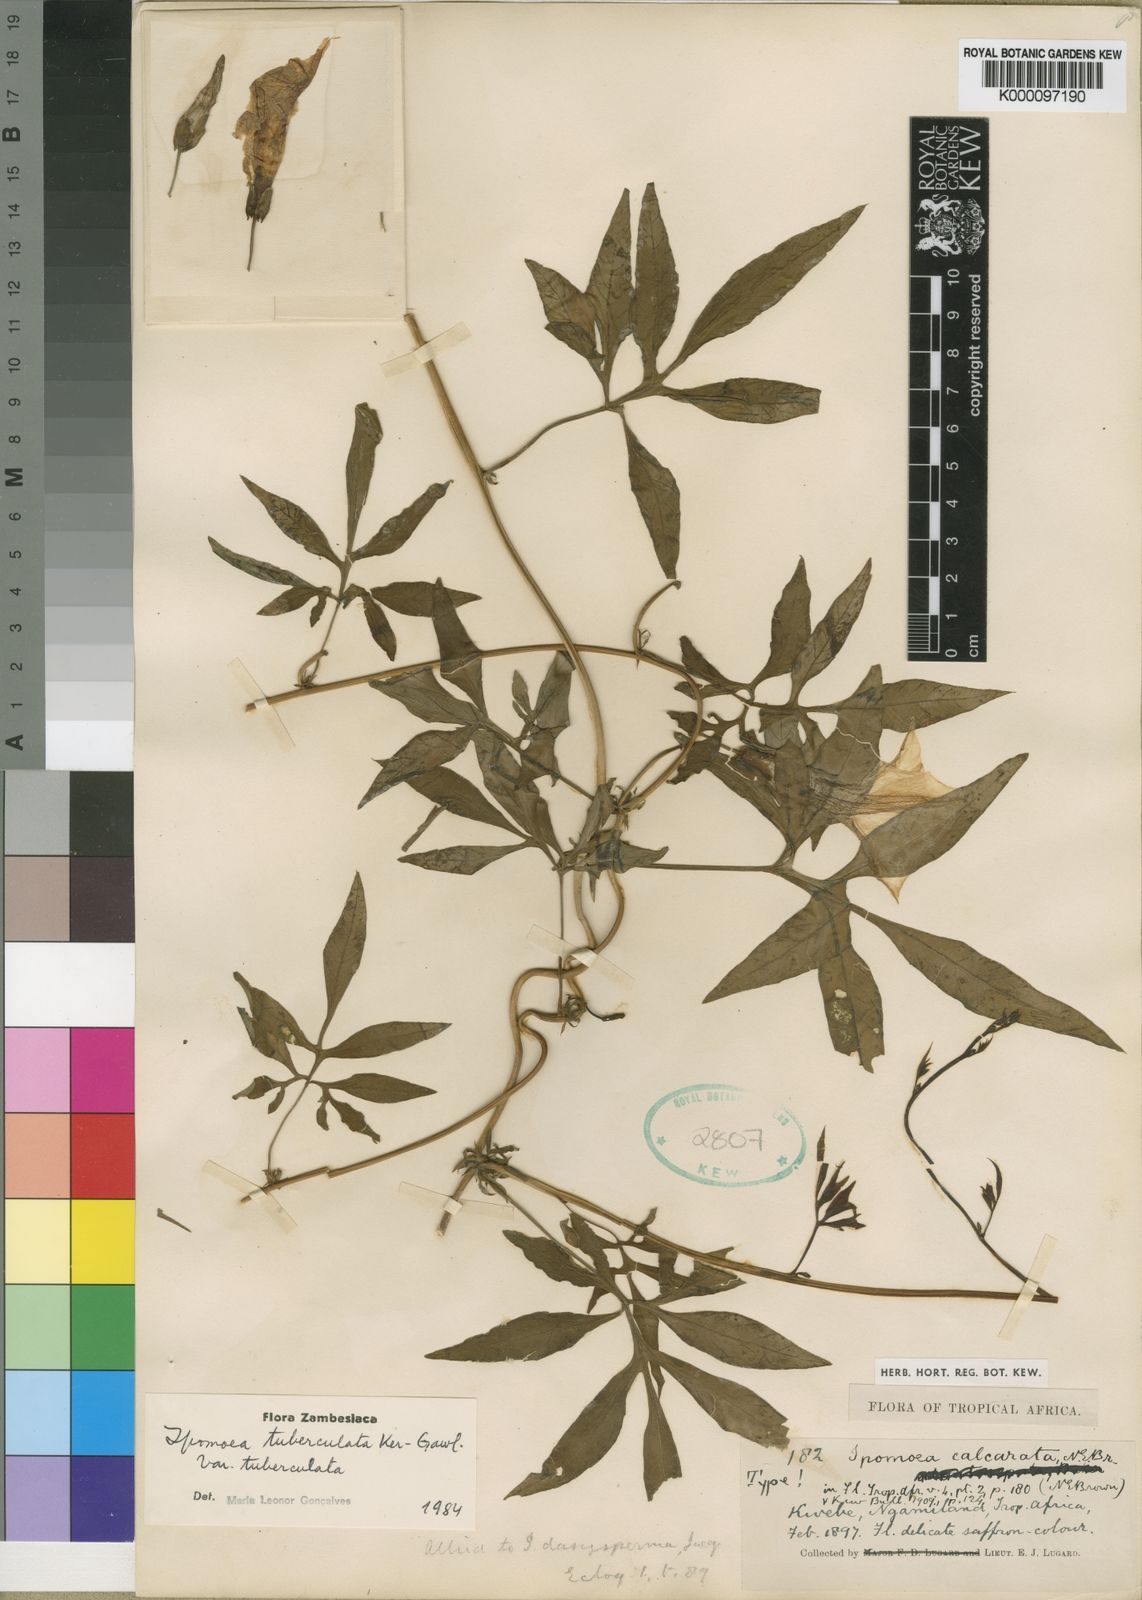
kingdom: Plantae
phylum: Tracheophyta
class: Magnoliopsida
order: Solanales
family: Convolvulaceae
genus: Ipomoea
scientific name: Ipomoea tuberculata
